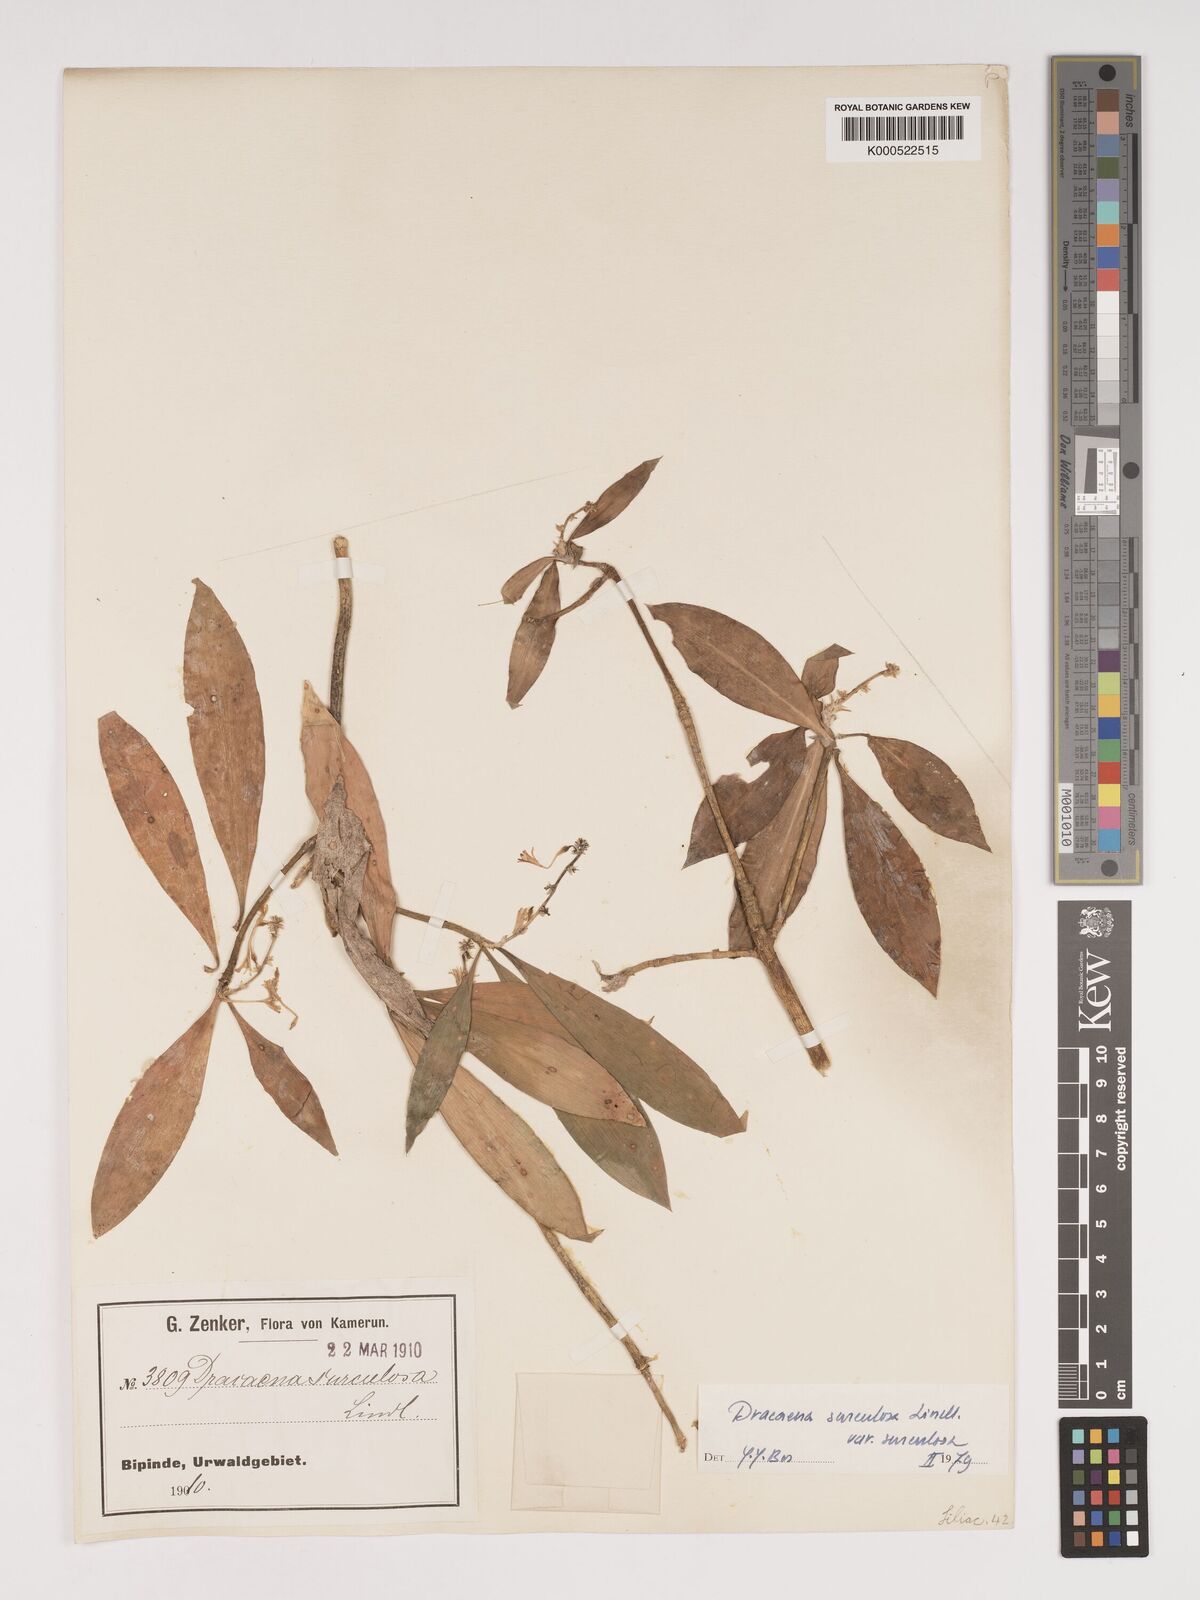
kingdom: Plantae
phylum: Tracheophyta
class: Liliopsida
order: Asparagales
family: Asparagaceae
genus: Dracaena
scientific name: Dracaena surculosa
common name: Spotted dracaena
